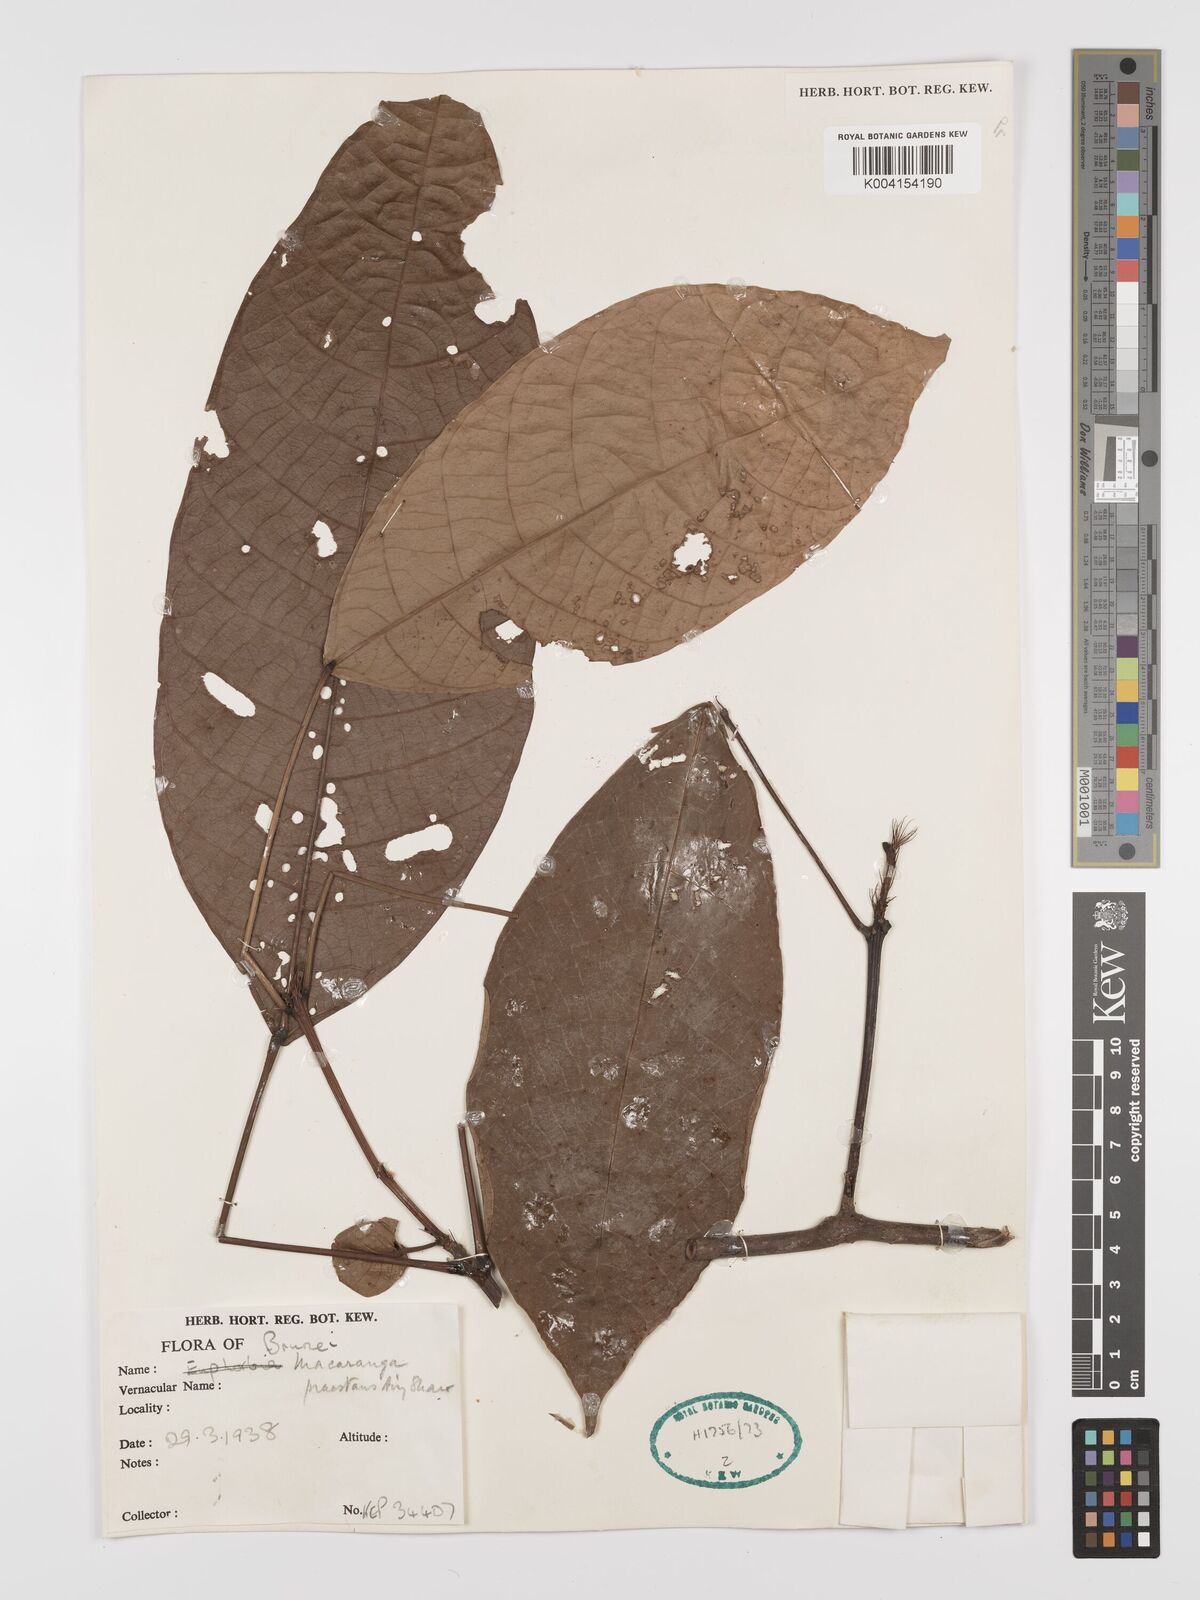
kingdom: Plantae
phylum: Tracheophyta
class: Magnoliopsida
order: Malpighiales
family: Euphorbiaceae
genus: Macaranga
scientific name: Macaranga praestans
